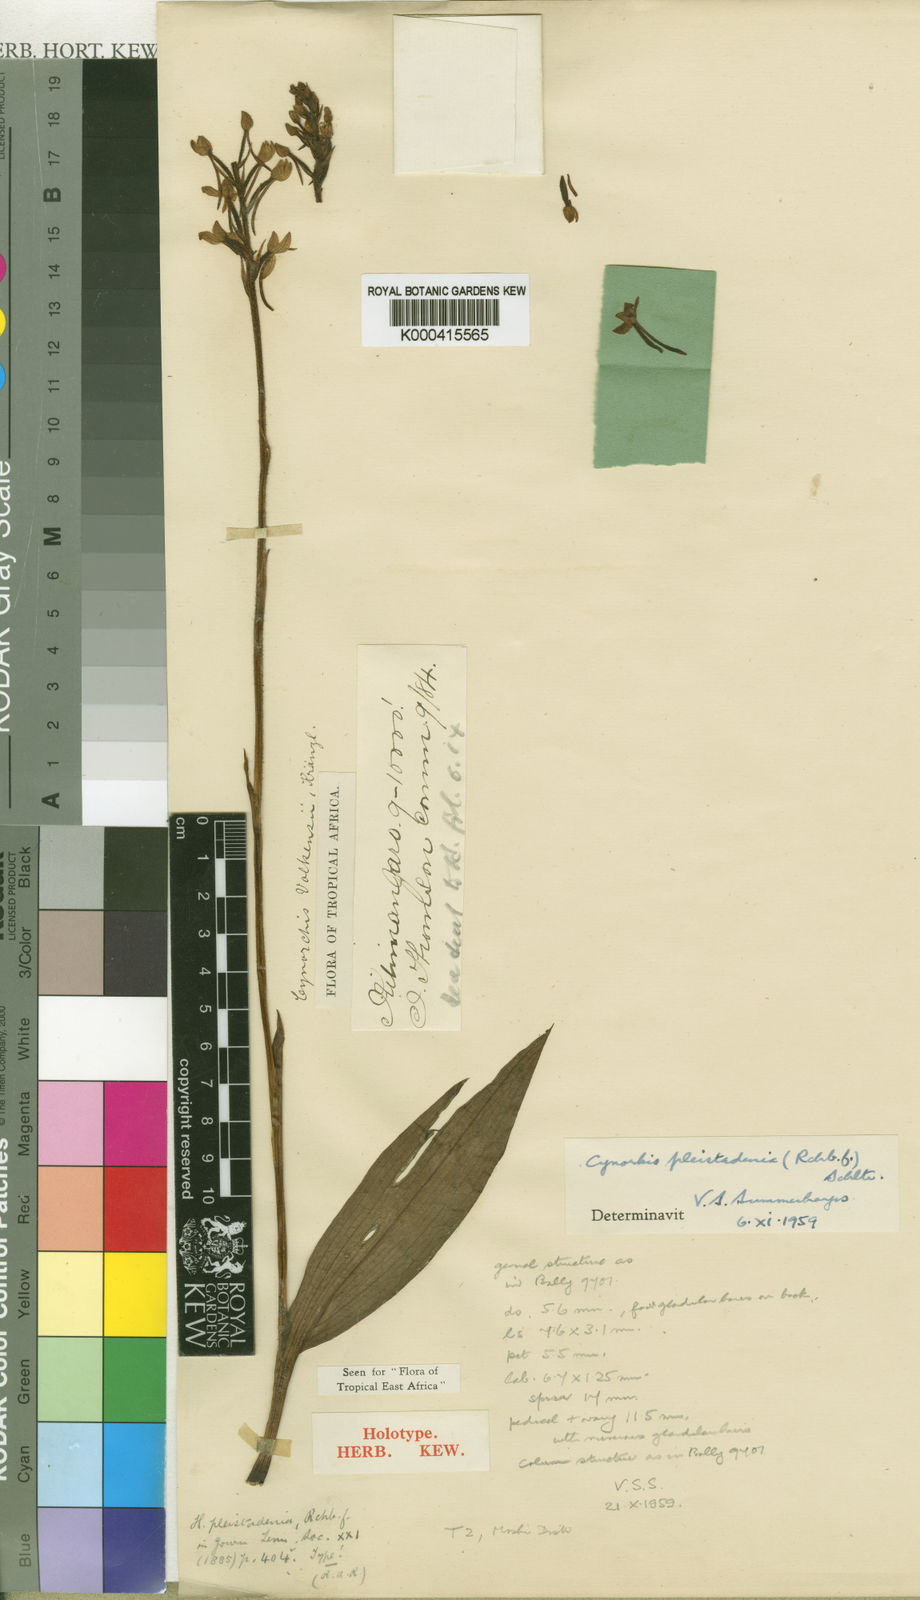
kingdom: Plantae
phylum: Tracheophyta
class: Liliopsida
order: Asparagales
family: Orchidaceae
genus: Cynorkis
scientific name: Cynorkis pleistadenia
